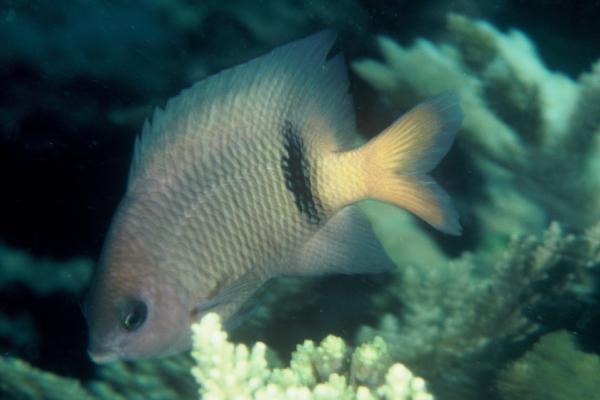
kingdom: Animalia
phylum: Chordata
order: Perciformes
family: Pomacentridae
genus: Plectroglyphidodon
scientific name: Plectroglyphidodon dickii
